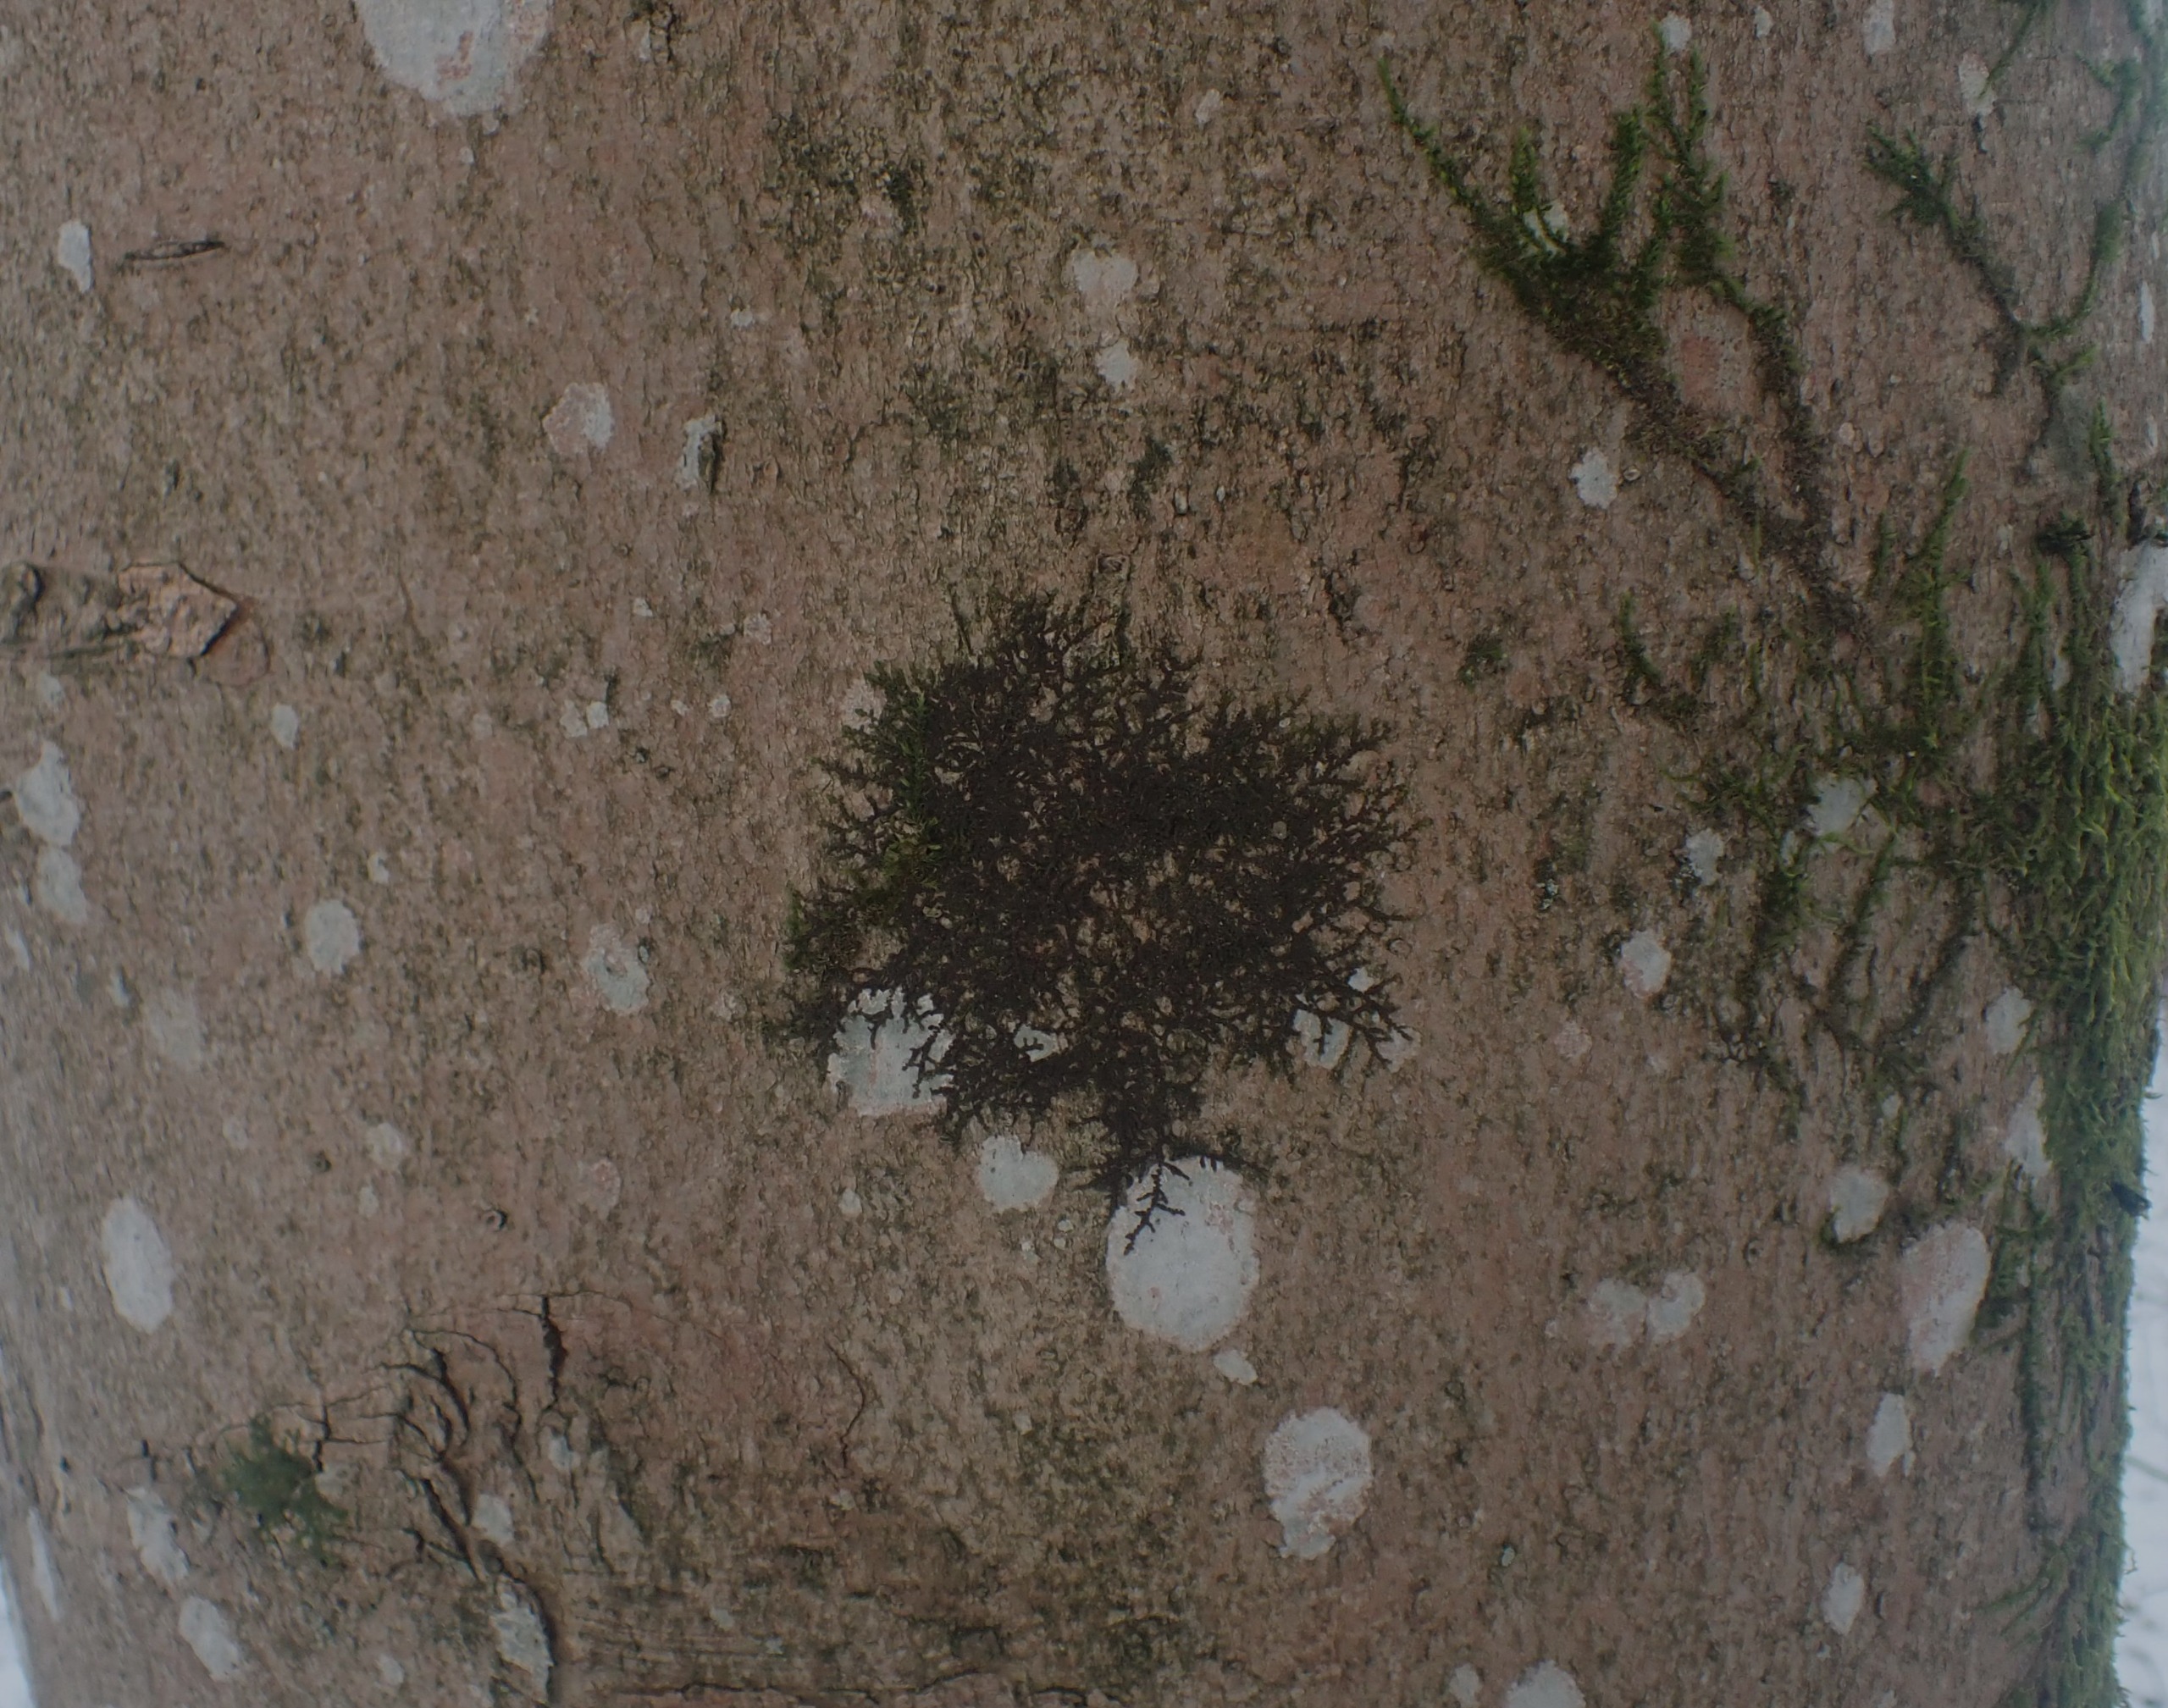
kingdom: Plantae
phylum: Marchantiophyta
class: Jungermanniopsida
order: Porellales
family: Frullaniaceae
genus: Frullania
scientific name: Frullania dilatata
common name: Mat bronzemos
